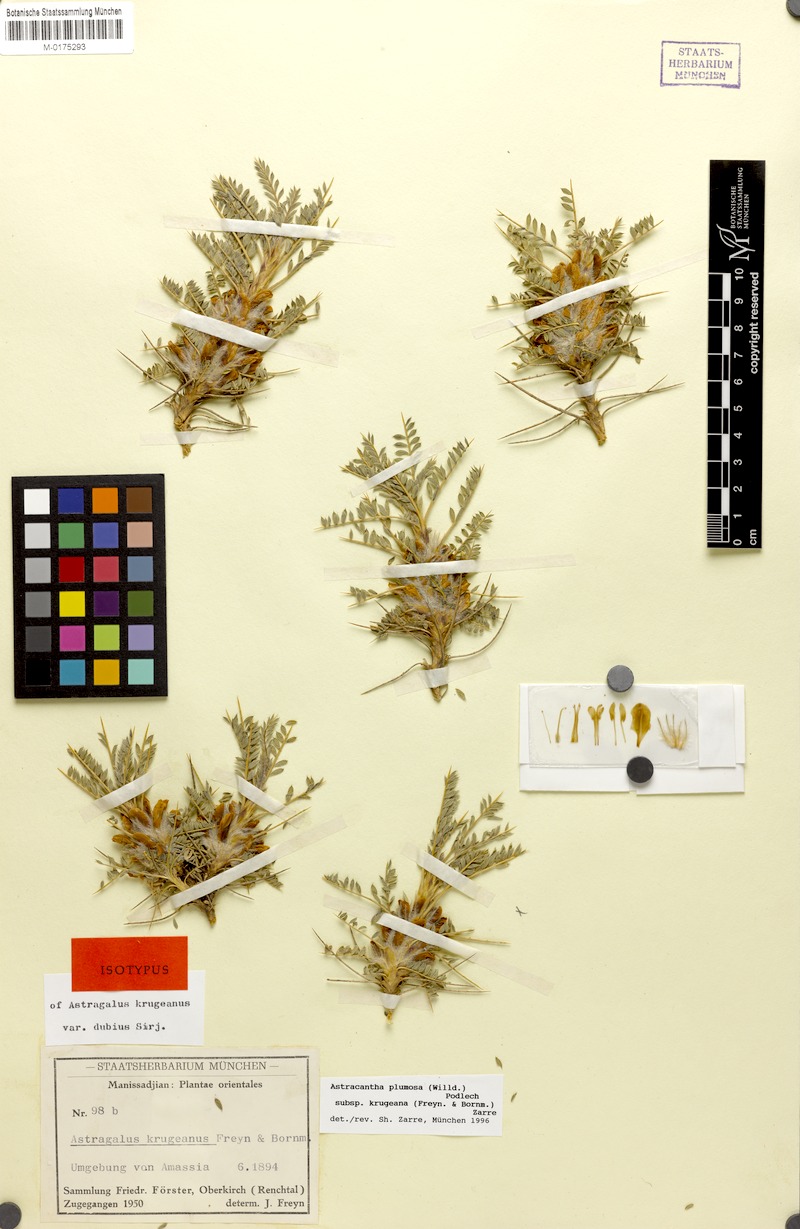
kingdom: Plantae
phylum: Tracheophyta
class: Magnoliopsida
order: Fabales
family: Fabaceae
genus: Astragalus
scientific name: Astragalus plumosus
